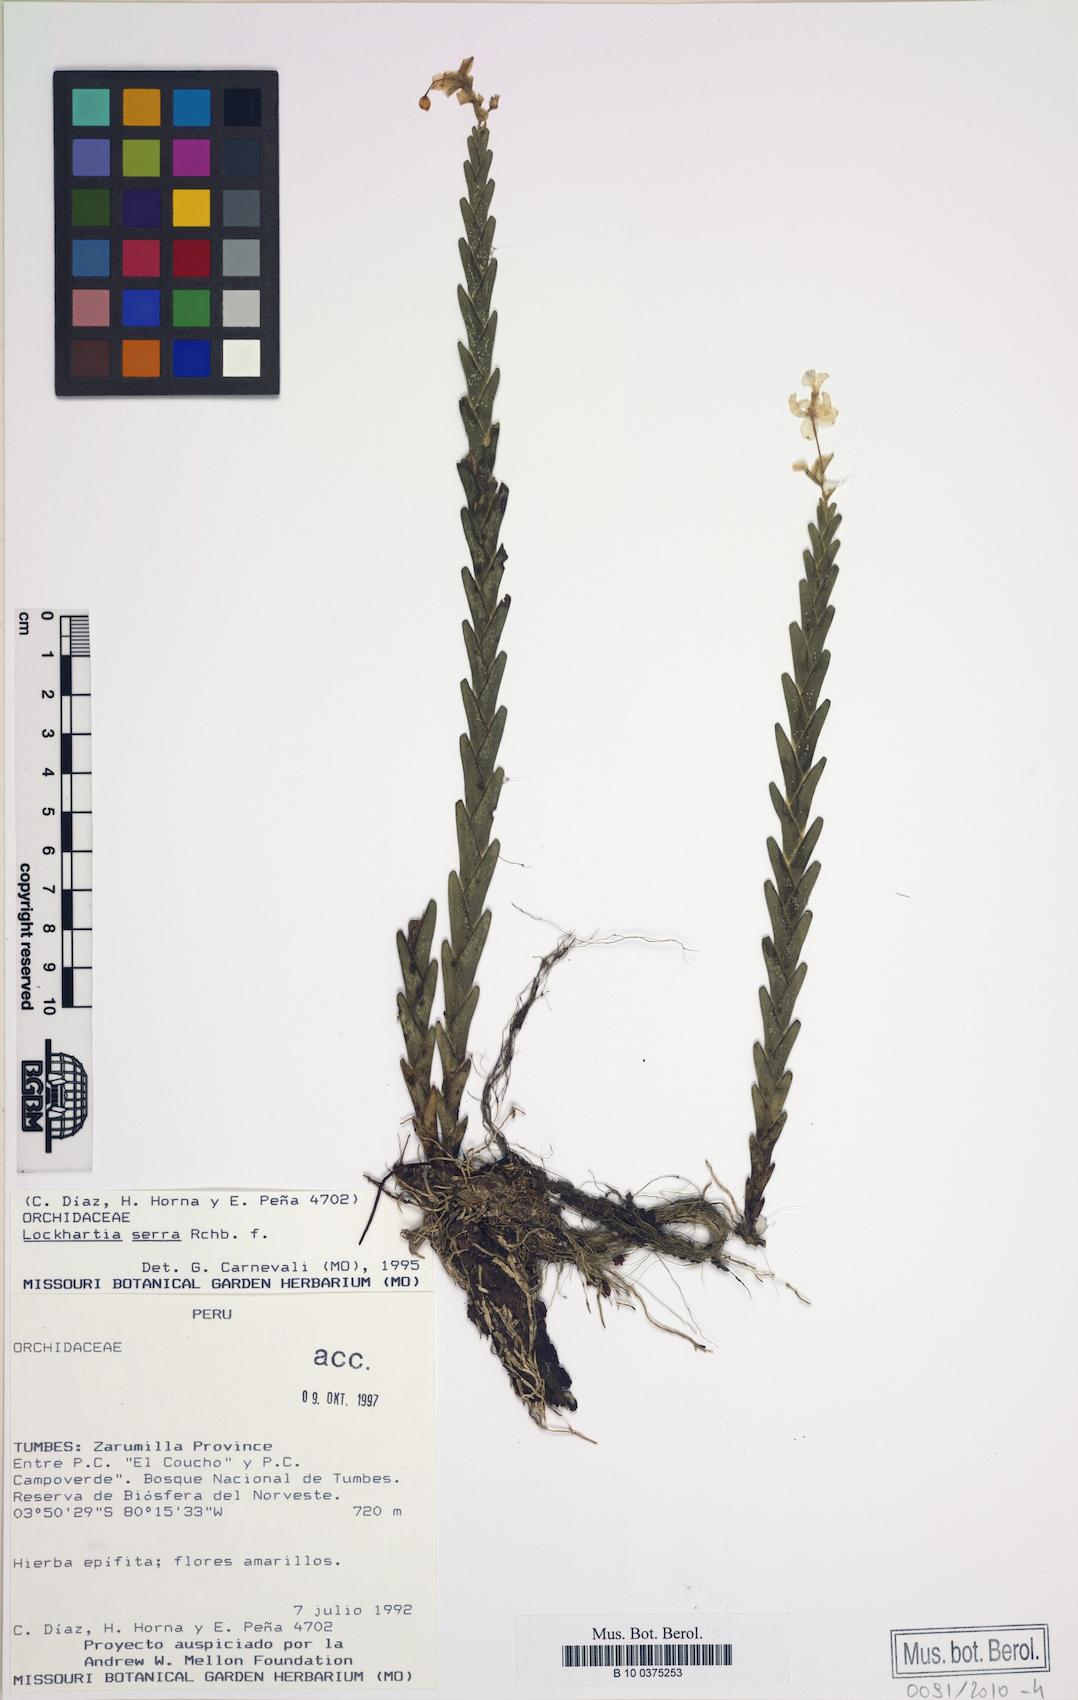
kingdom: Plantae
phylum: Tracheophyta
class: Liliopsida
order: Asparagales
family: Orchidaceae
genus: Lockhartia
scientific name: Lockhartia serra
